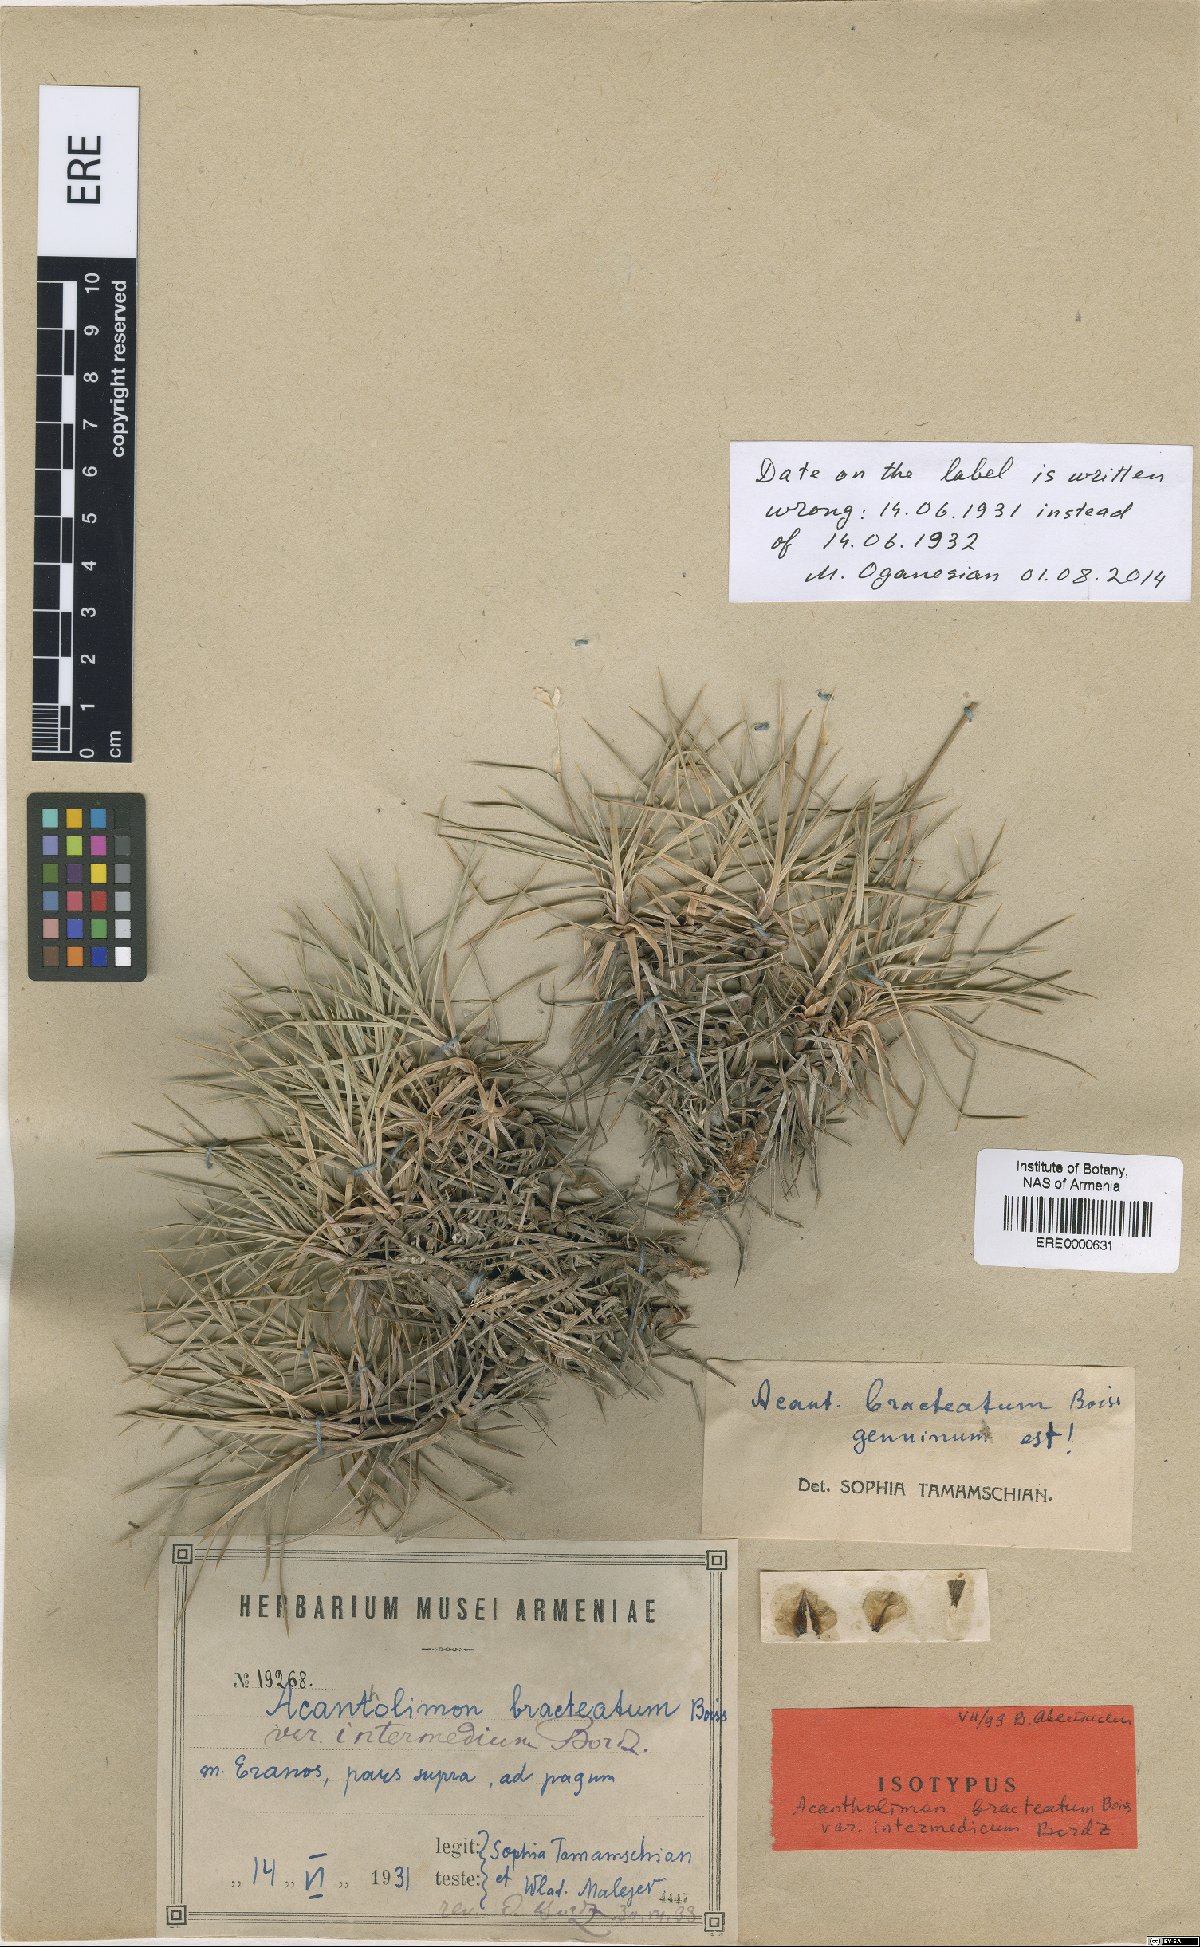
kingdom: Plantae
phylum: Tracheophyta
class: Magnoliopsida
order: Caryophyllales
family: Plumbaginaceae
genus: Acantholimon
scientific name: Acantholimon bracteatum
